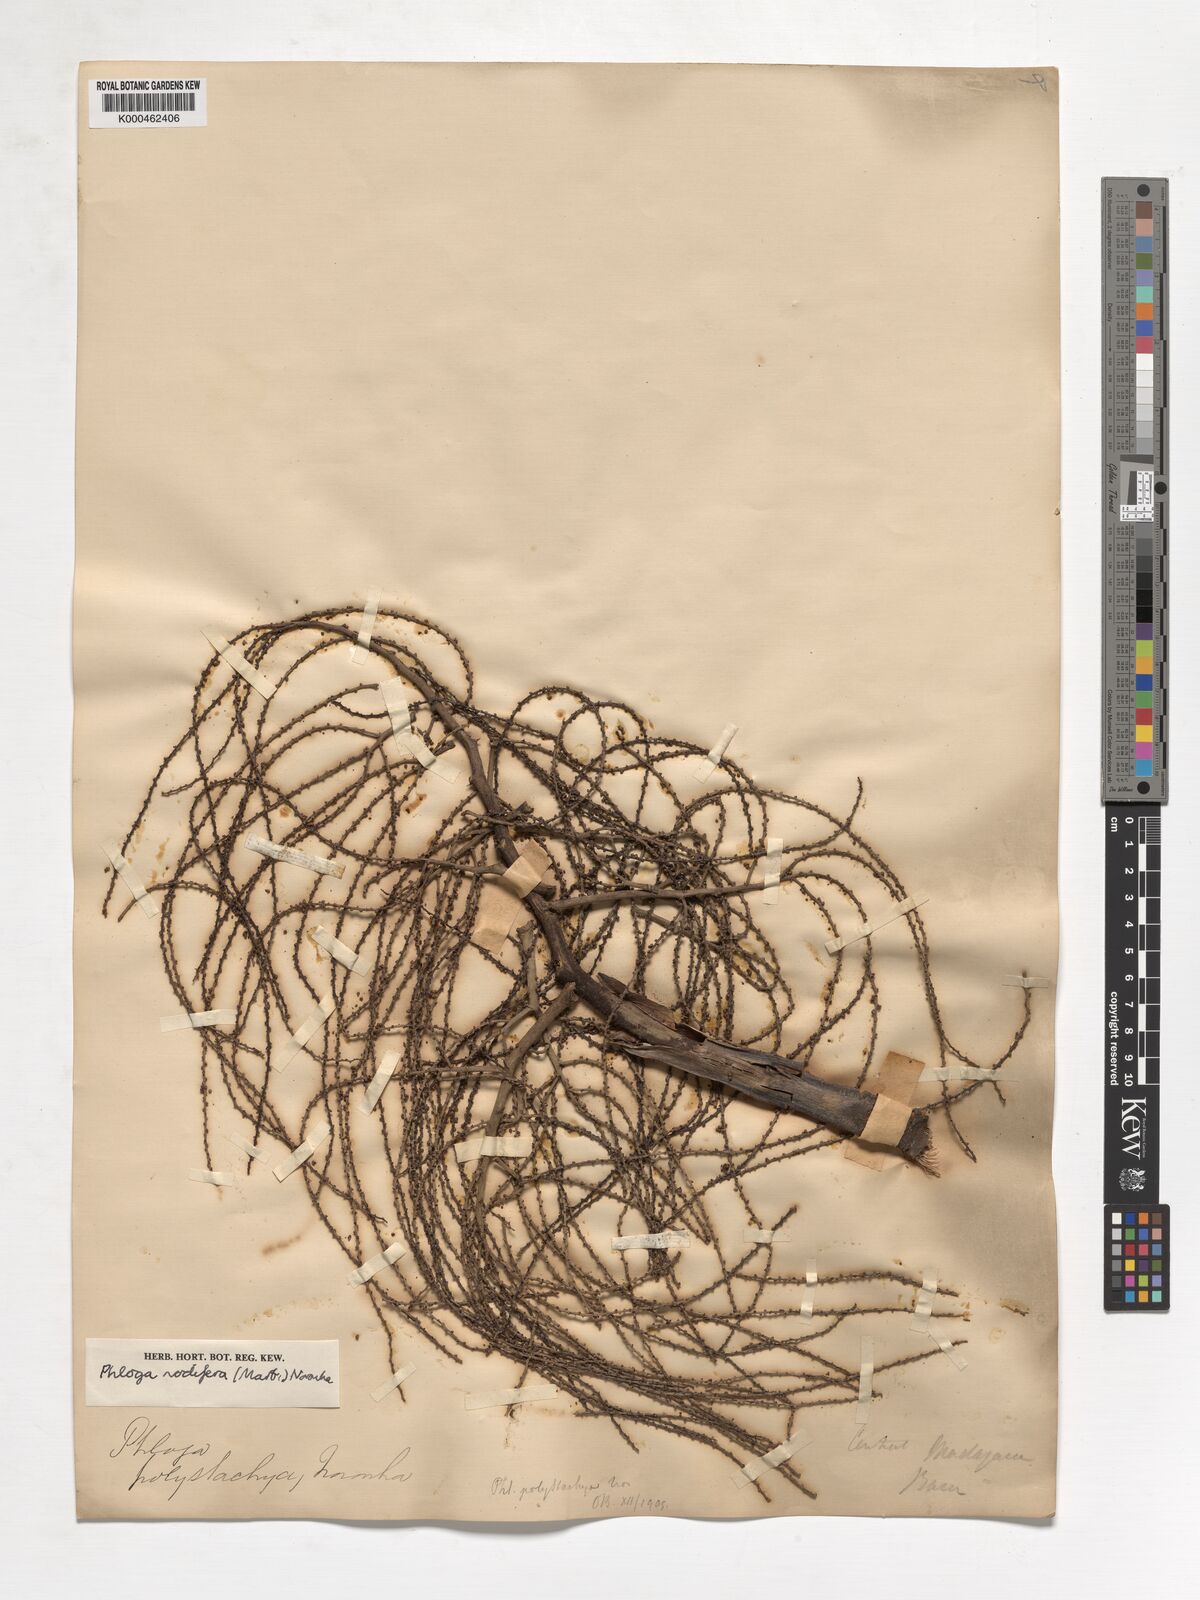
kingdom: Plantae
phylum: Tracheophyta
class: Liliopsida
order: Arecales
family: Arecaceae
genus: Dypsis
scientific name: Dypsis nodifera
